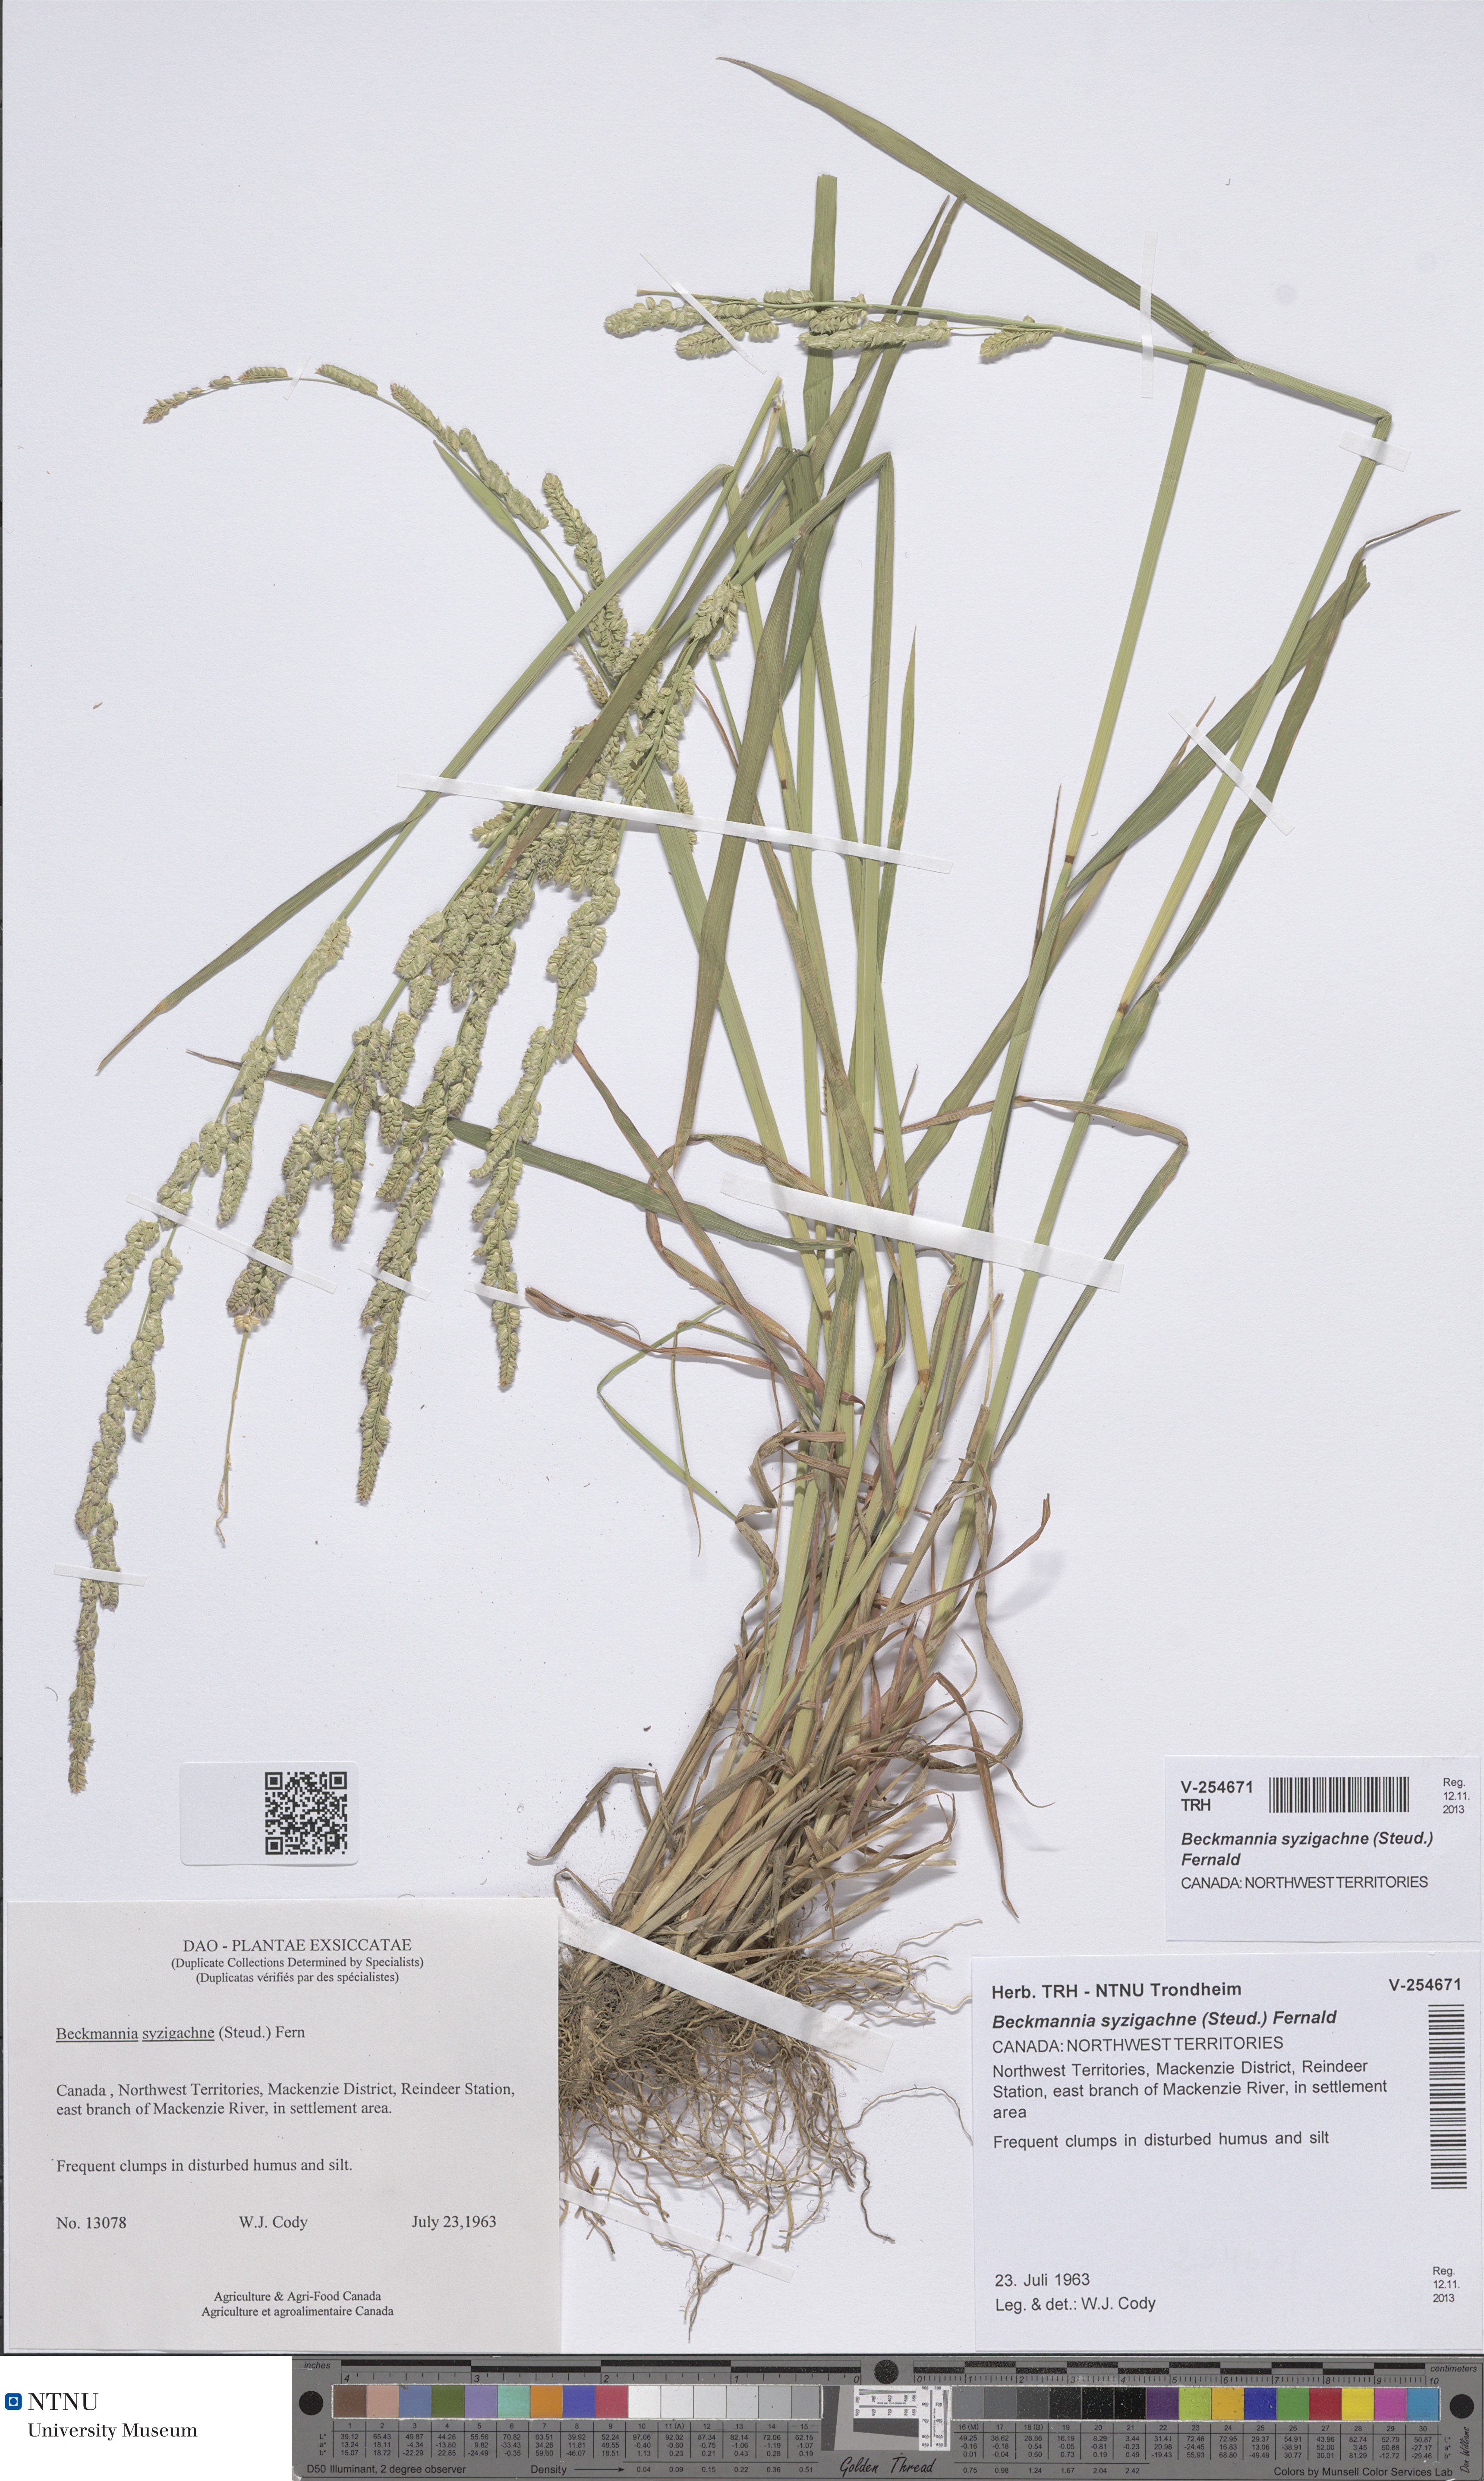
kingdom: Plantae
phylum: Tracheophyta
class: Liliopsida
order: Poales
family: Poaceae
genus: Beckmannia
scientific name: Beckmannia syzigachne
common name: American slough-grass
